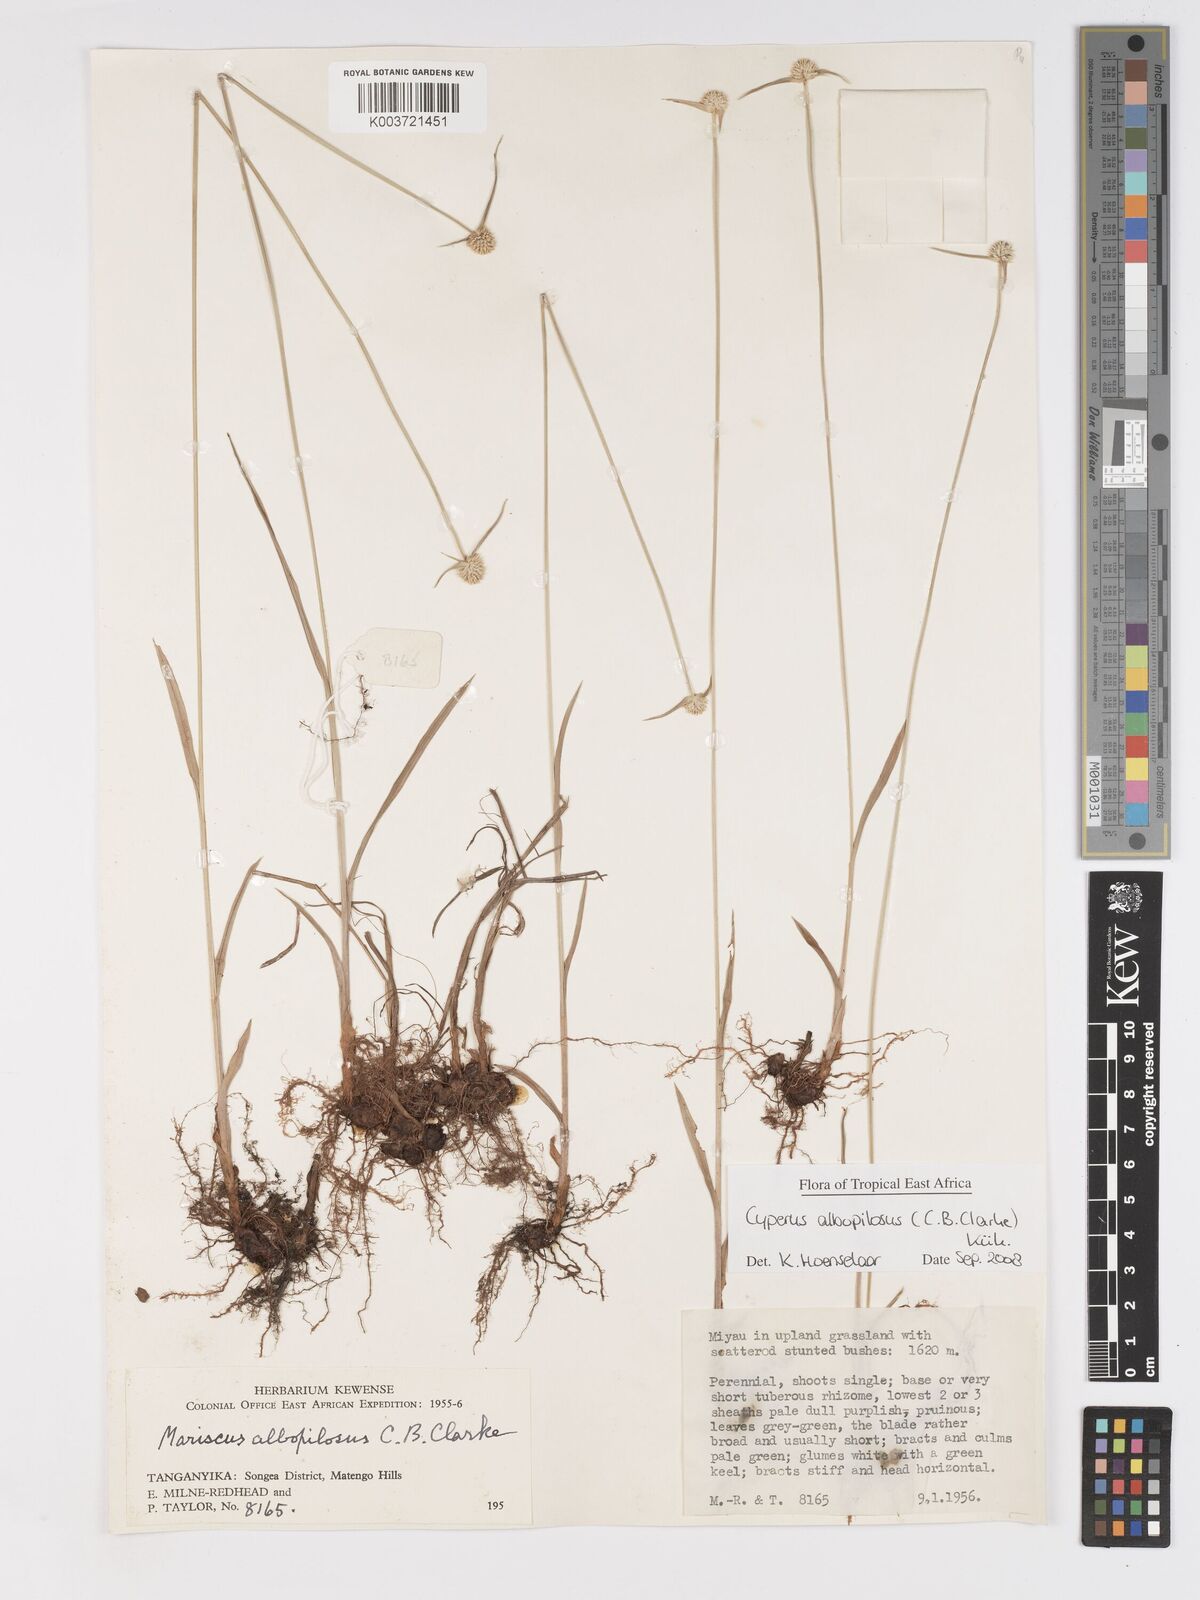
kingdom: Plantae
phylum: Tracheophyta
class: Liliopsida
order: Poales
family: Cyperaceae
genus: Cyperus
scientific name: Cyperus albopilosus
